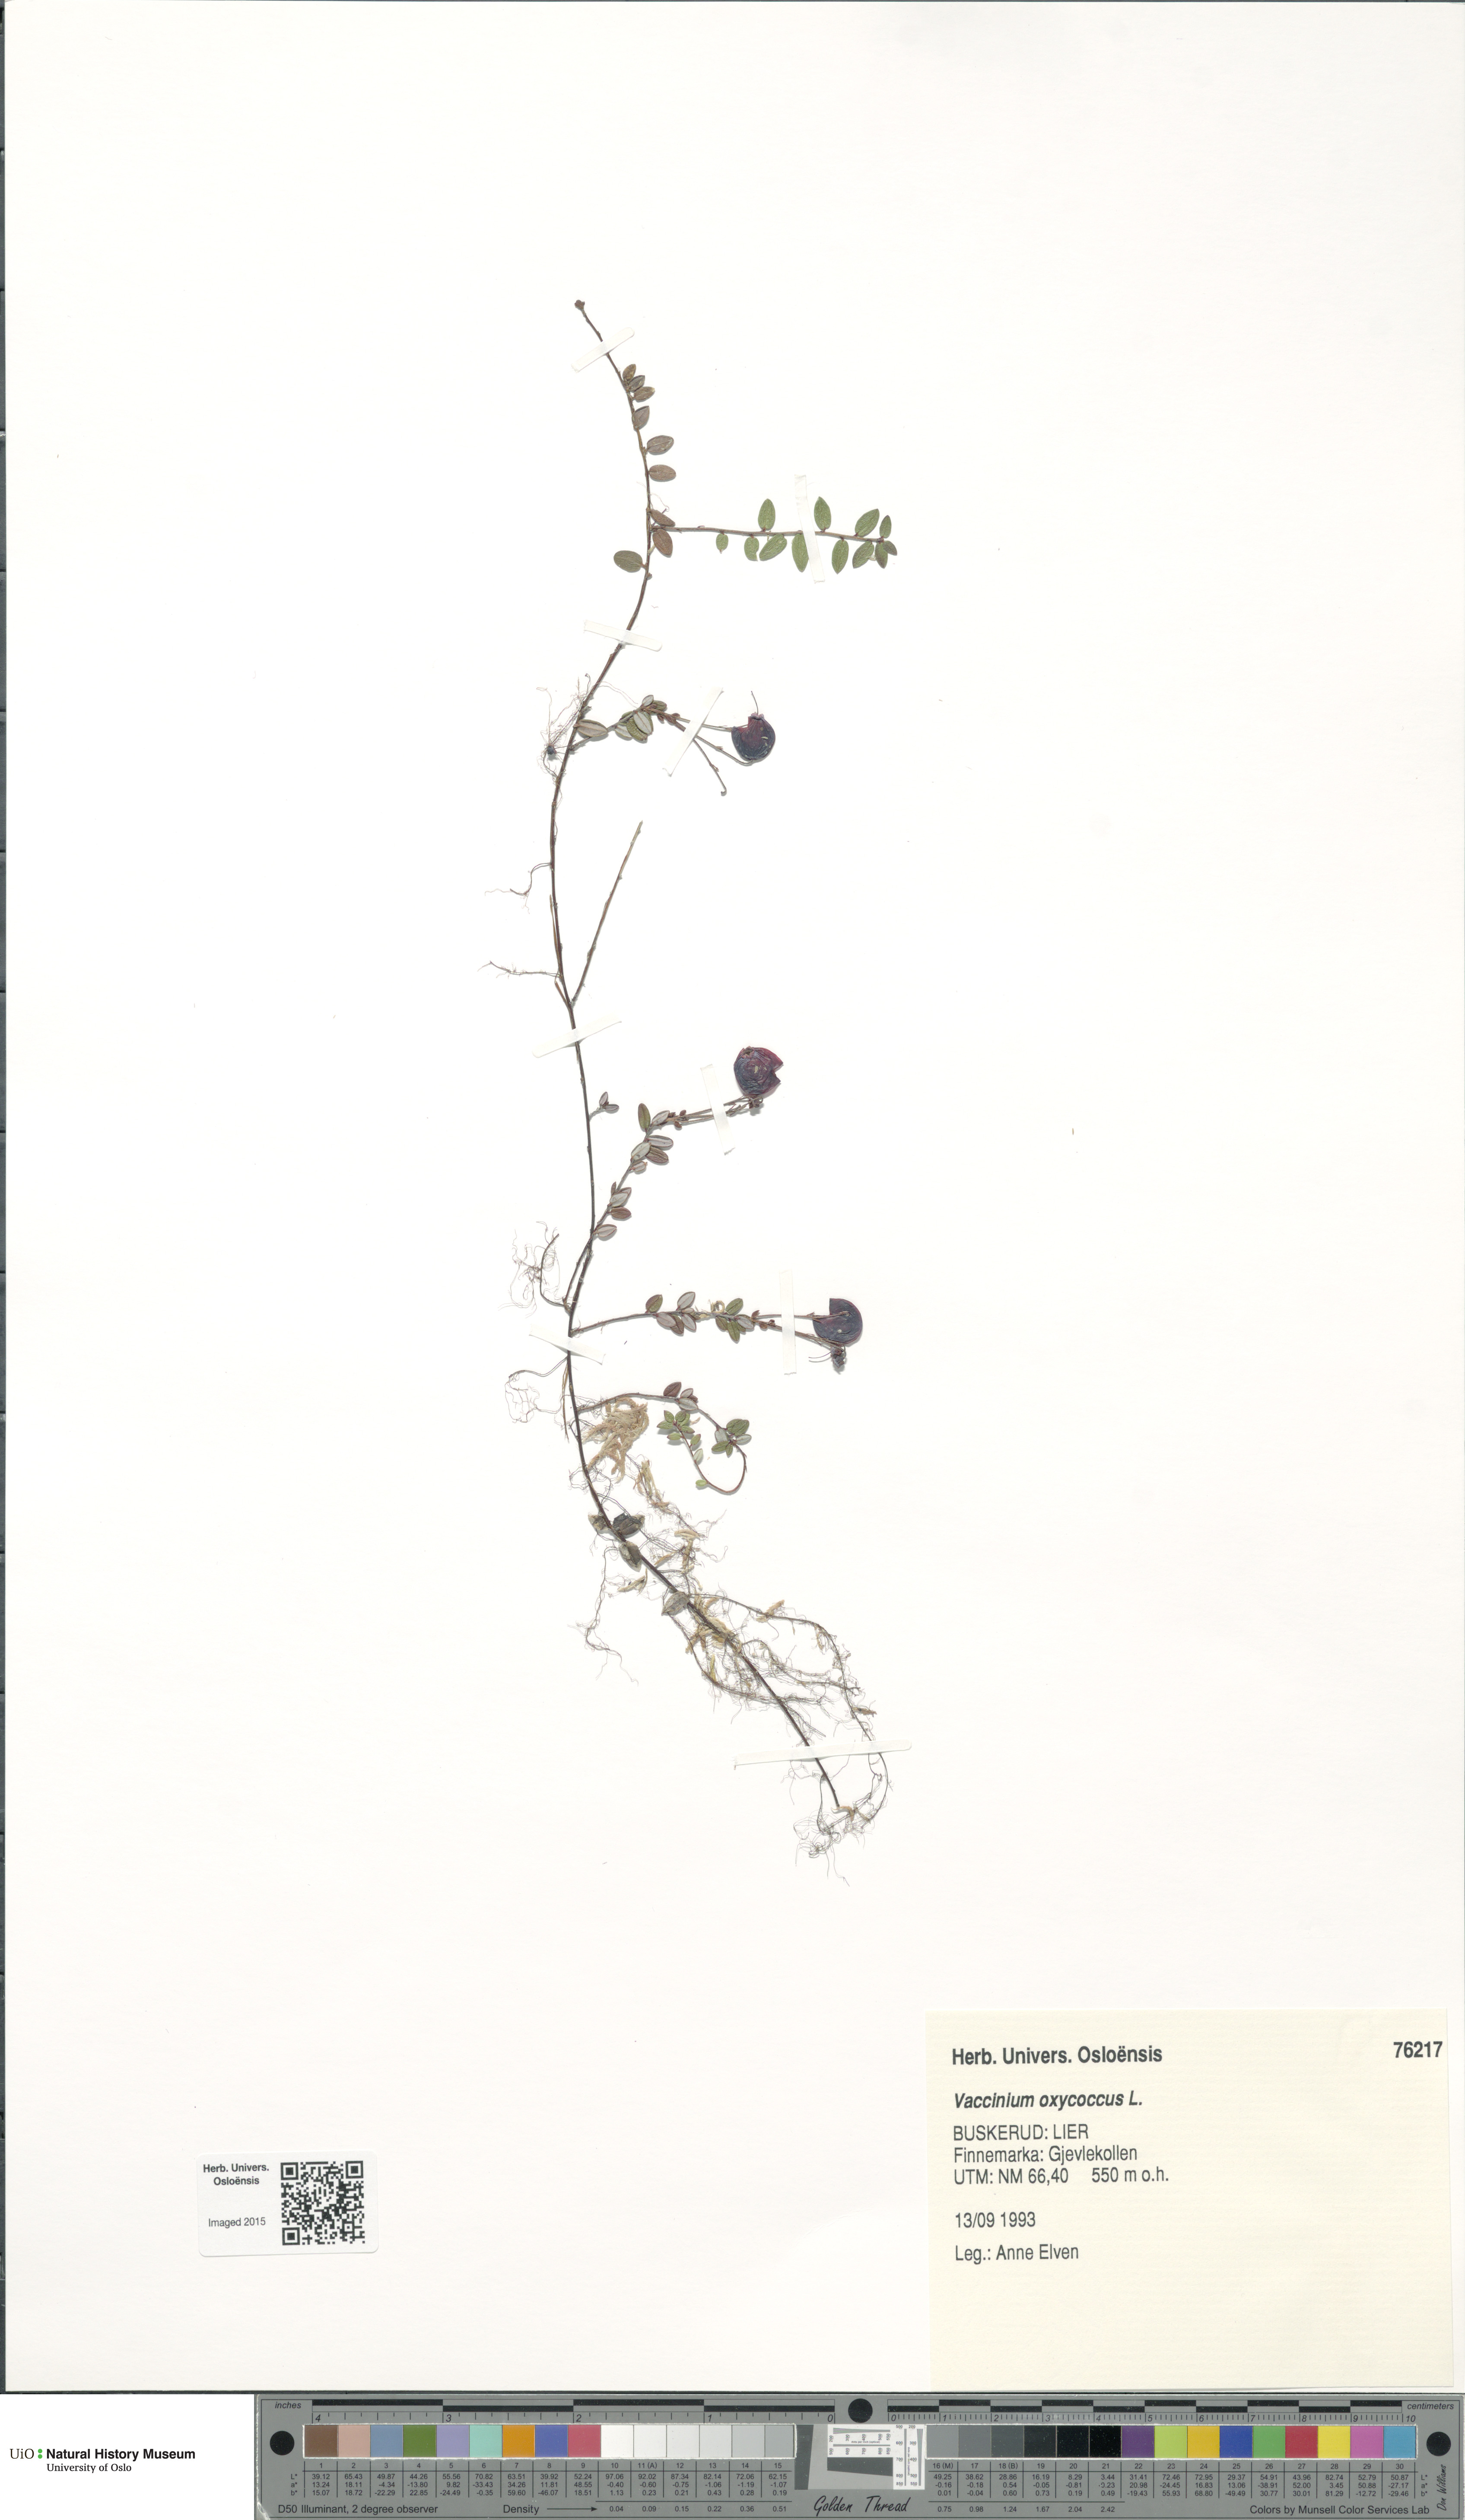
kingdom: Plantae
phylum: Tracheophyta
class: Magnoliopsida
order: Ericales
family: Ericaceae
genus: Vaccinium
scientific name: Vaccinium oxycoccos
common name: Cranberry
